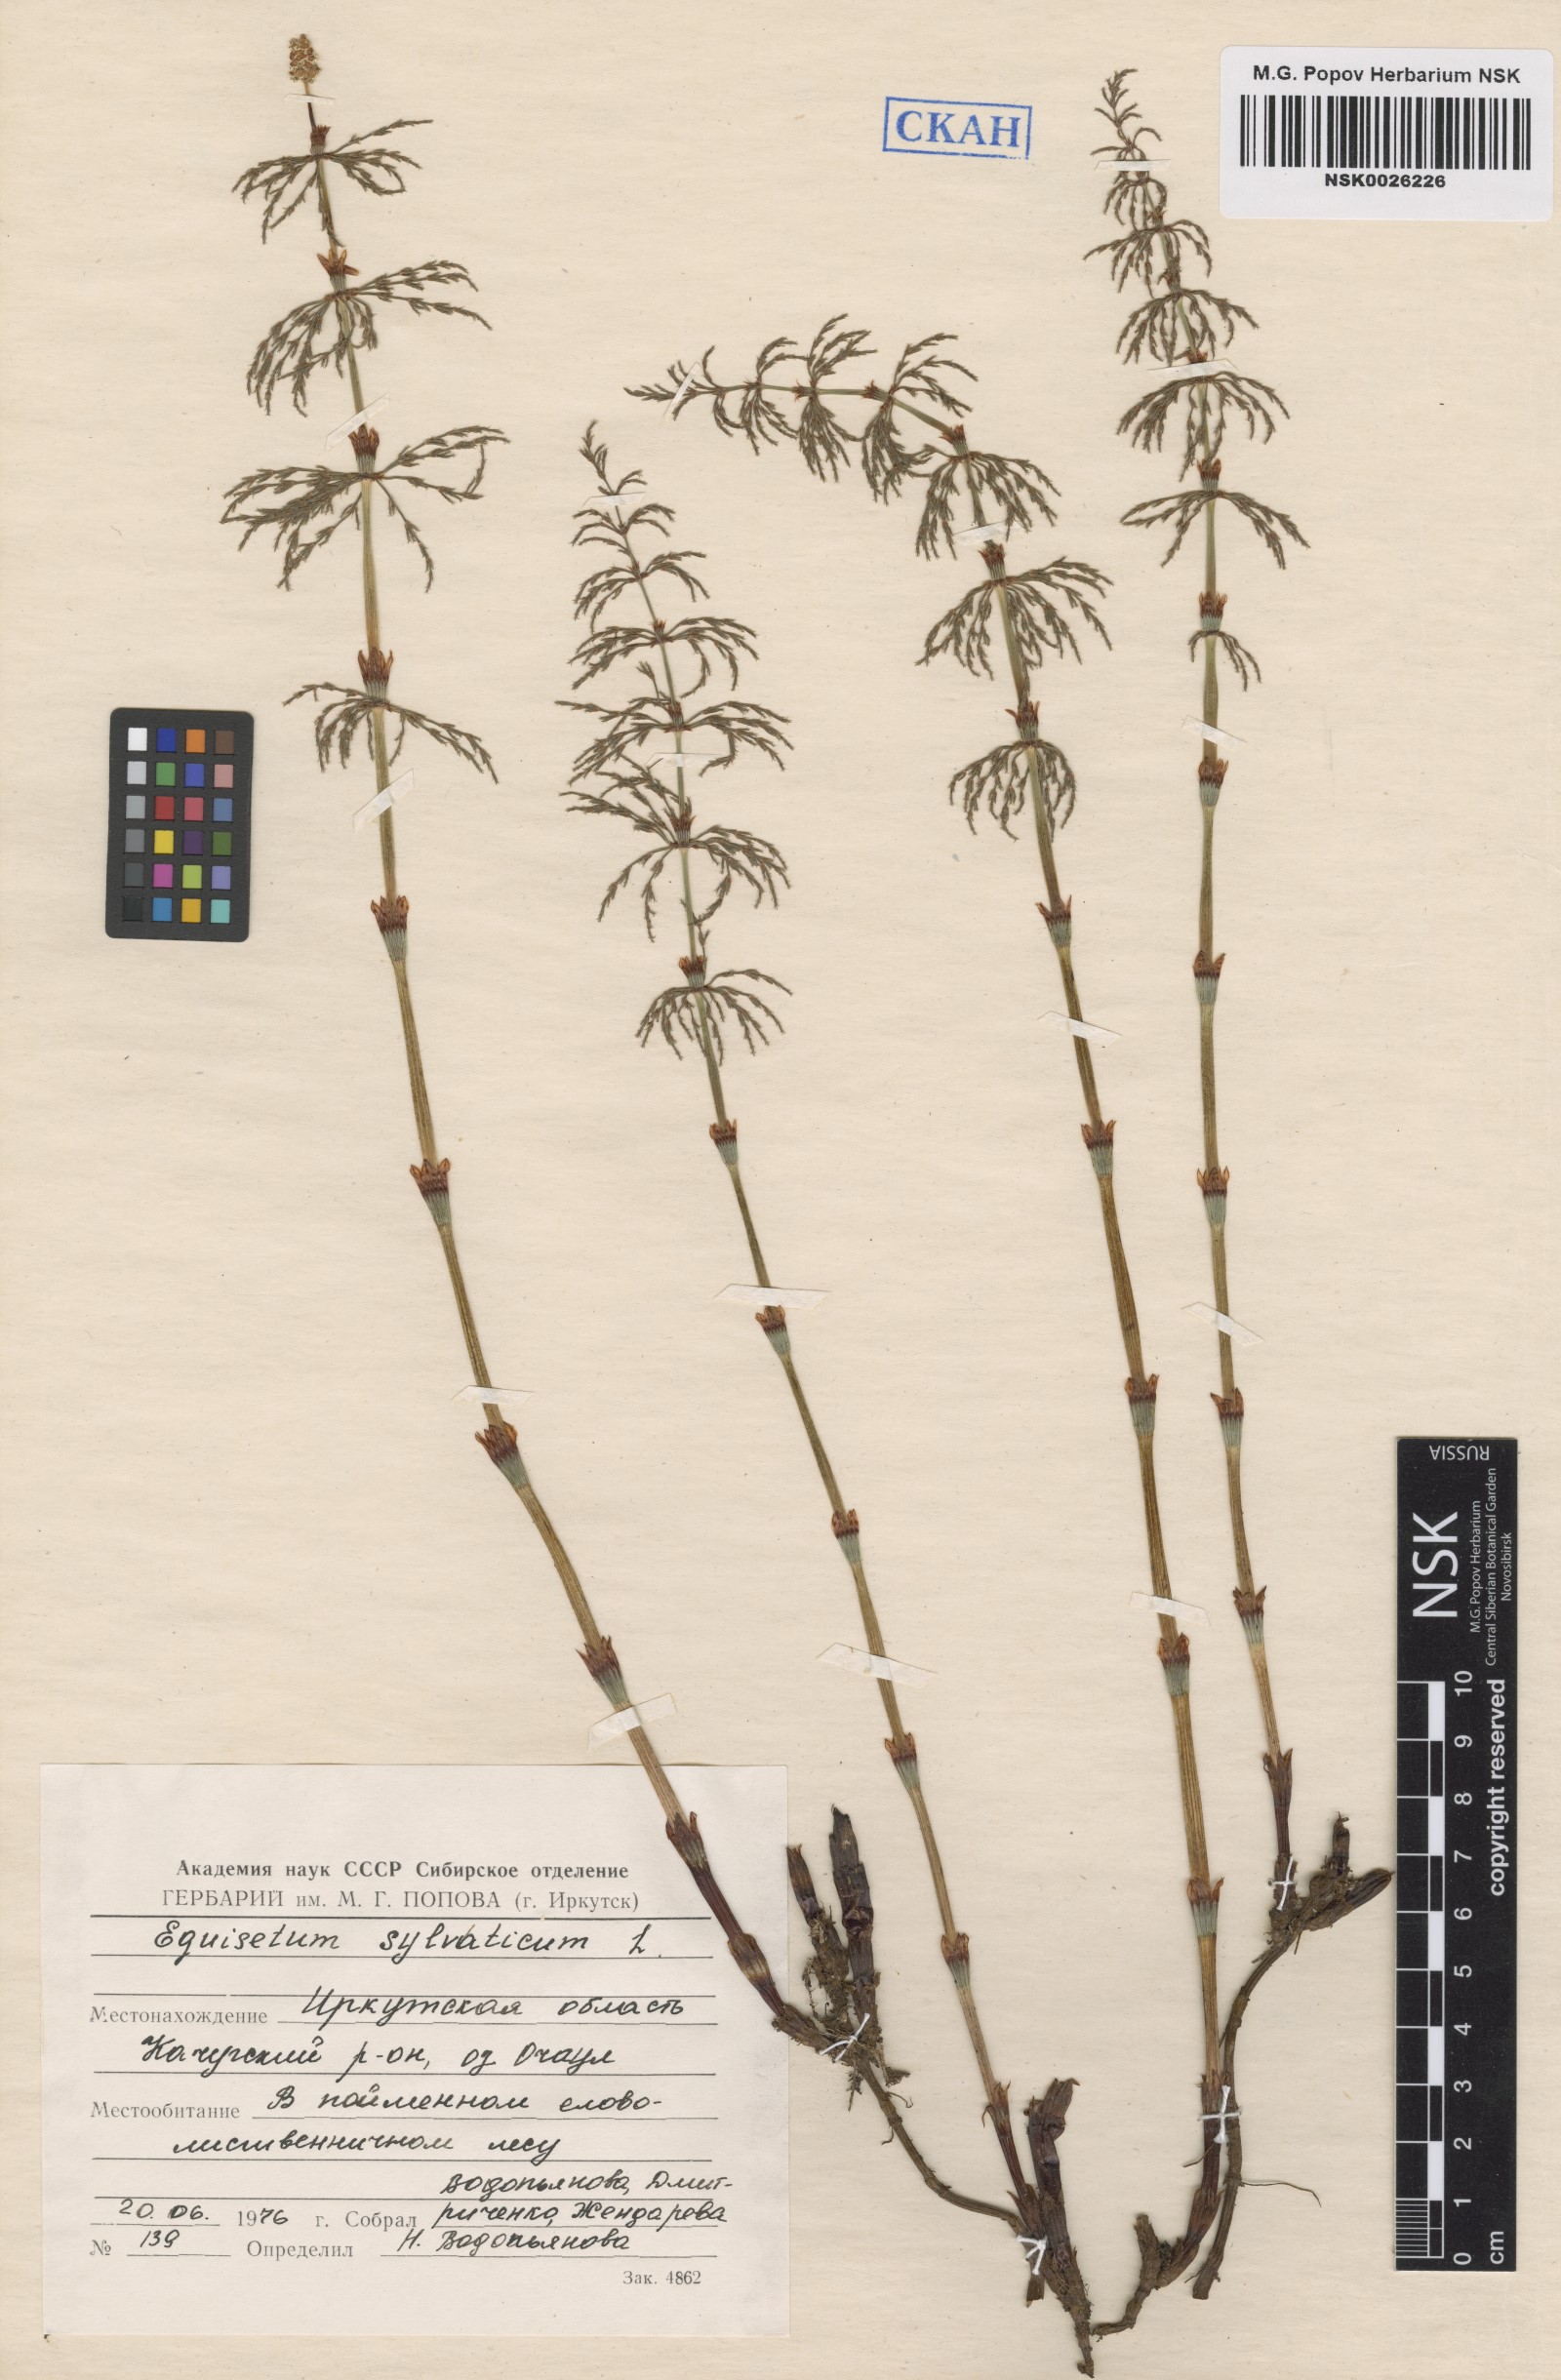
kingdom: Plantae
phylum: Tracheophyta
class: Polypodiopsida
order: Equisetales
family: Equisetaceae
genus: Equisetum
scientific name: Equisetum sylvaticum
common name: Wood horsetail
